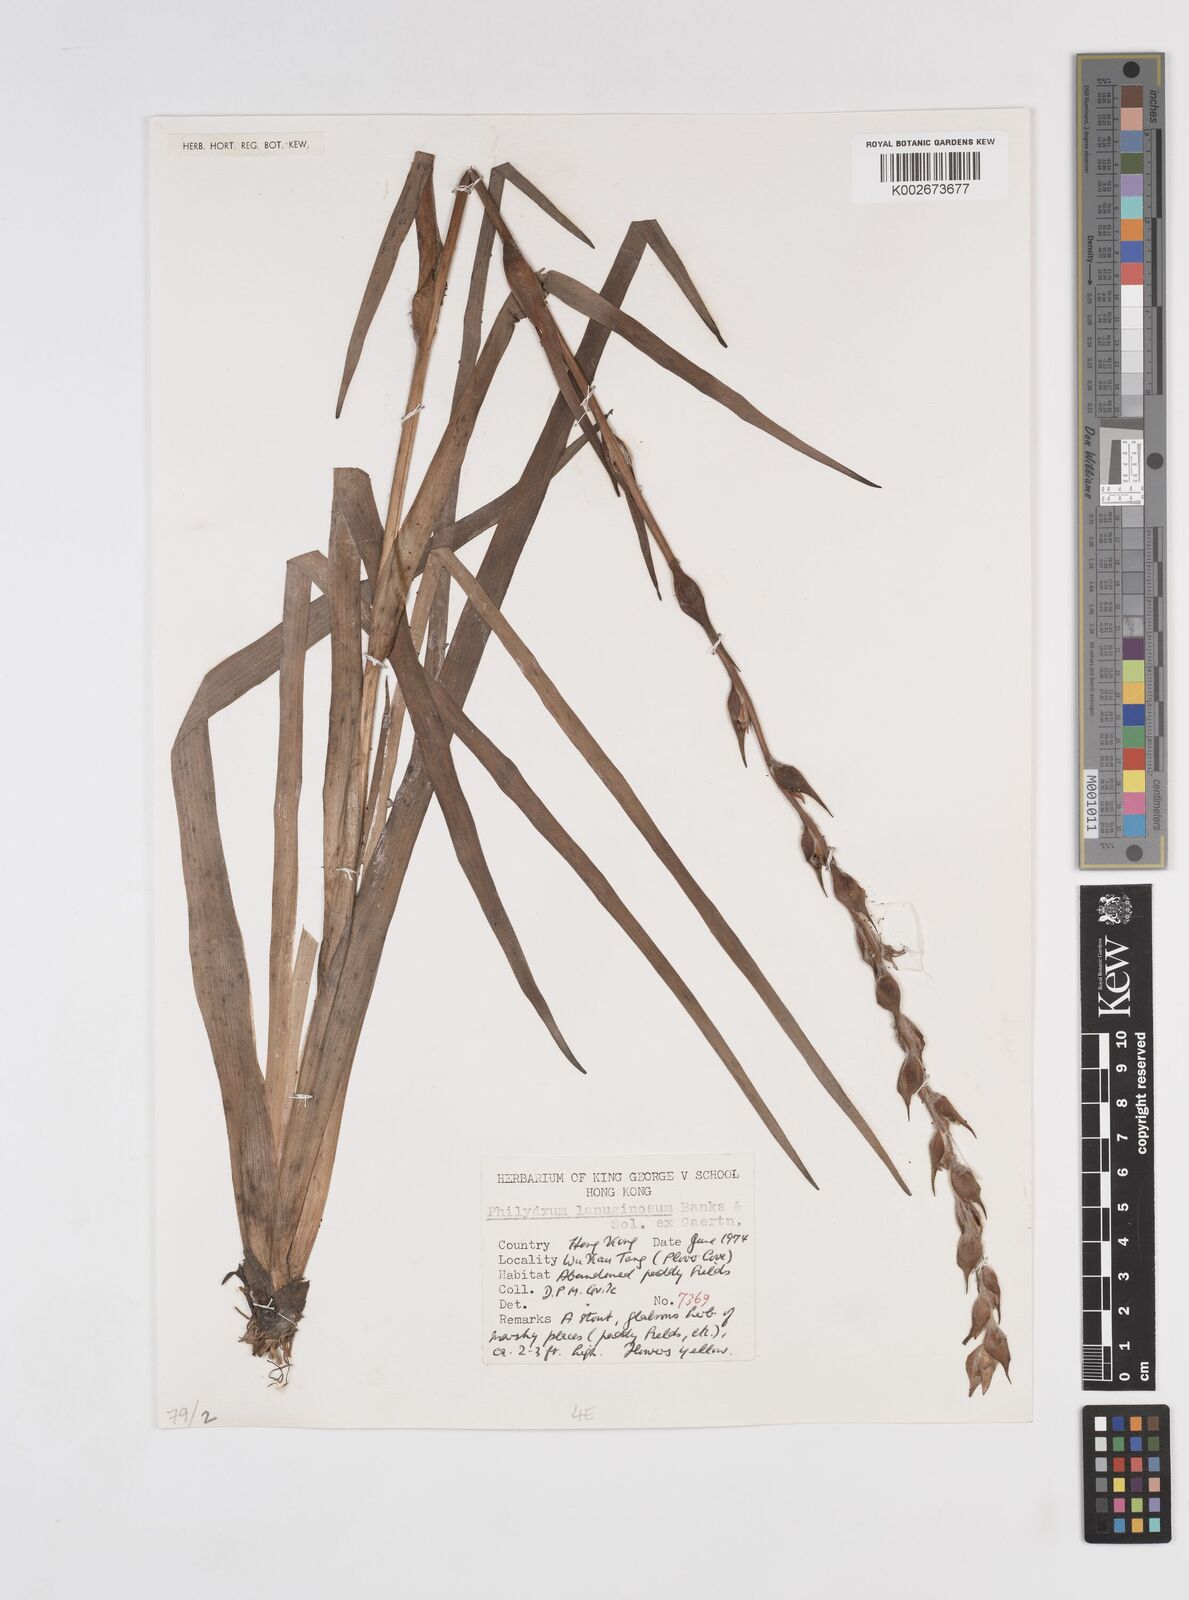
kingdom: Plantae
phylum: Tracheophyta
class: Liliopsida
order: Commelinales
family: Philydraceae
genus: Philydrum
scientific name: Philydrum lanuginosum
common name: Woolly frog's mouth
